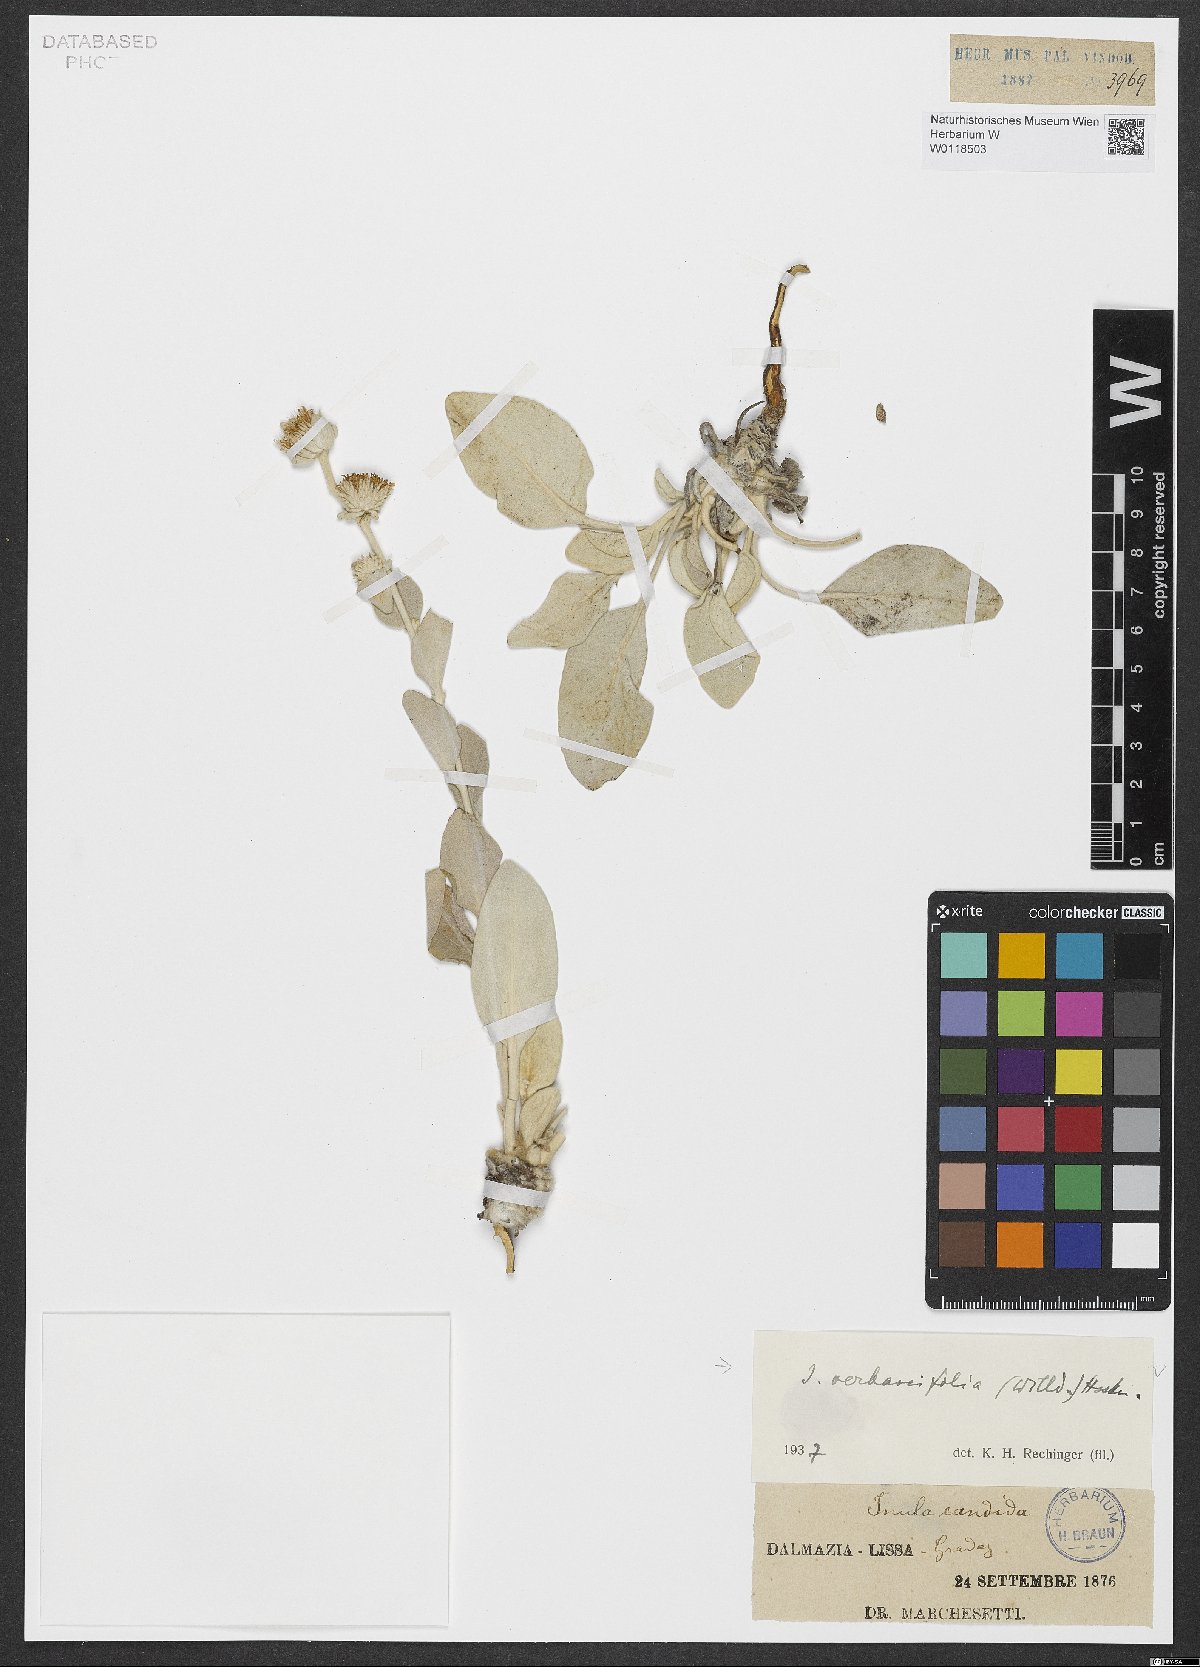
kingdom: Plantae
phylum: Tracheophyta
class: Magnoliopsida
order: Asterales
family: Asteraceae
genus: Pentanema
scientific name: Pentanema verbascifolium
